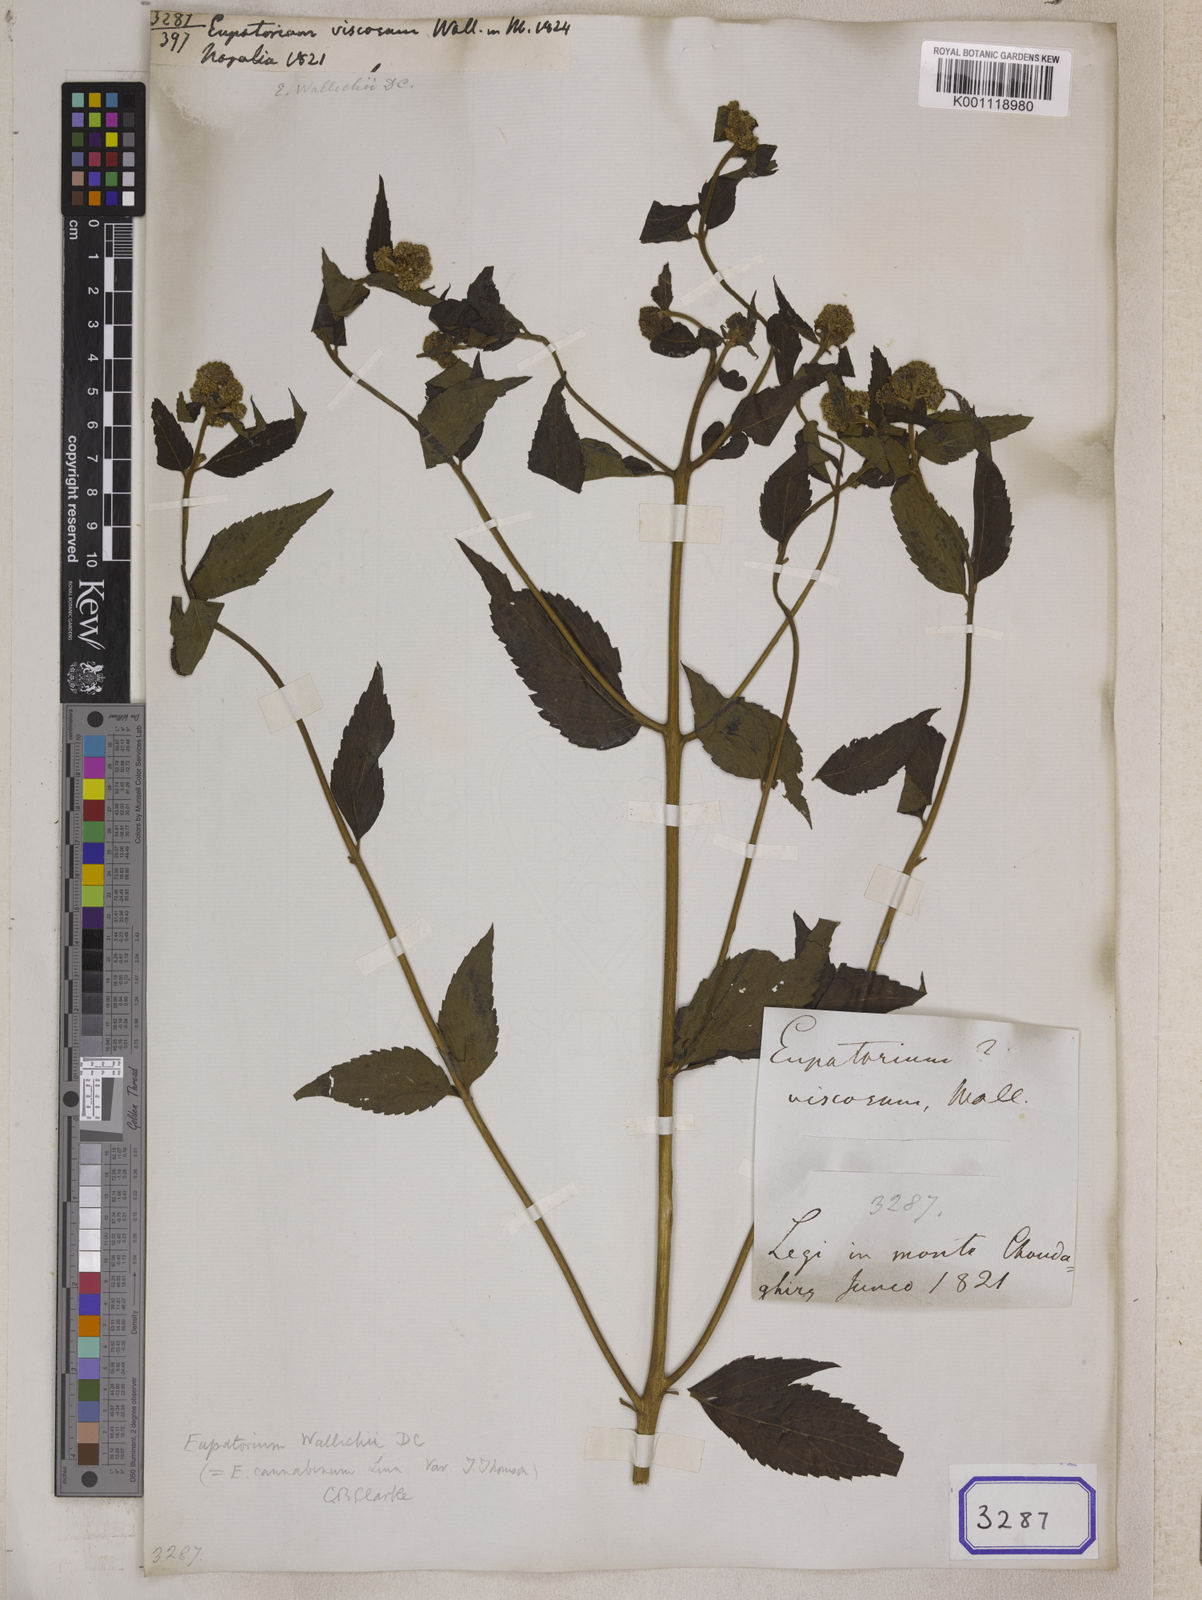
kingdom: Plantae
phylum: Tracheophyta
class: Magnoliopsida
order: Asterales
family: Asteraceae
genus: Eupatorium
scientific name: Eupatorium cannabinum
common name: Hemp-agrimony
